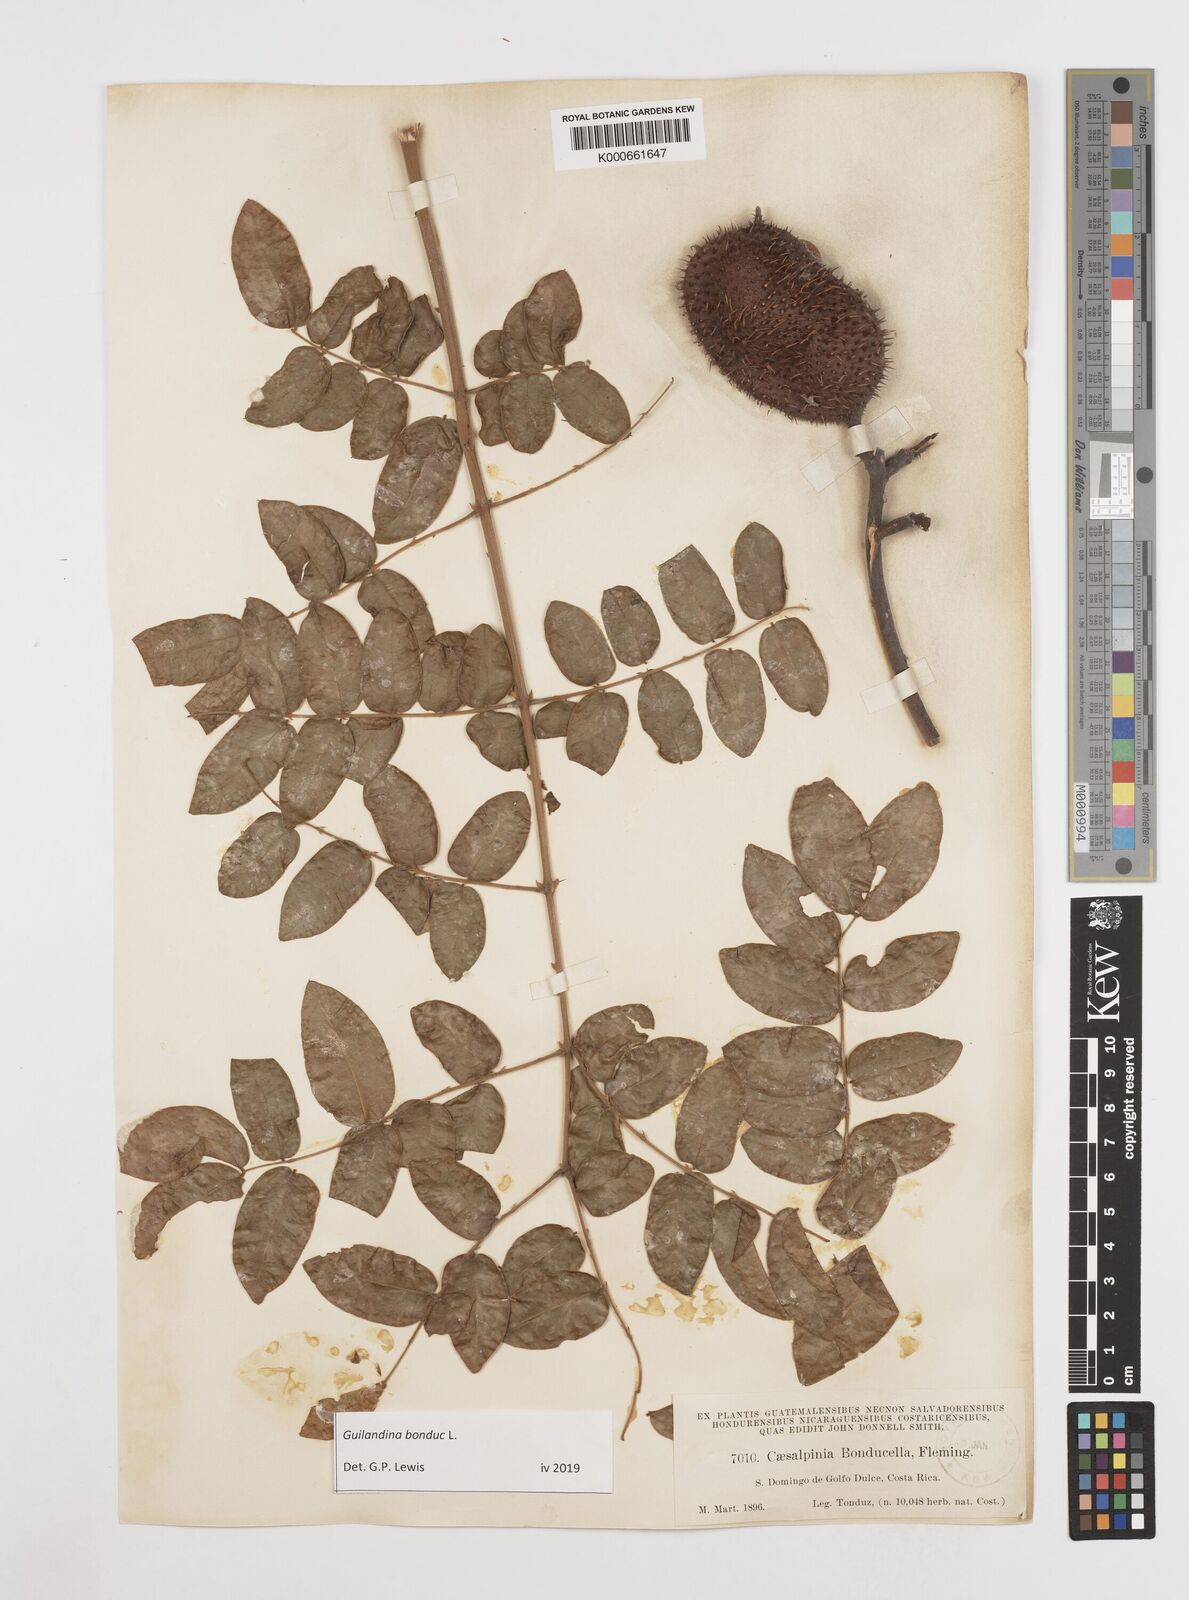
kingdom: Plantae
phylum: Tracheophyta
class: Magnoliopsida
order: Fabales
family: Fabaceae
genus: Guilandina
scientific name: Guilandina bonduc
